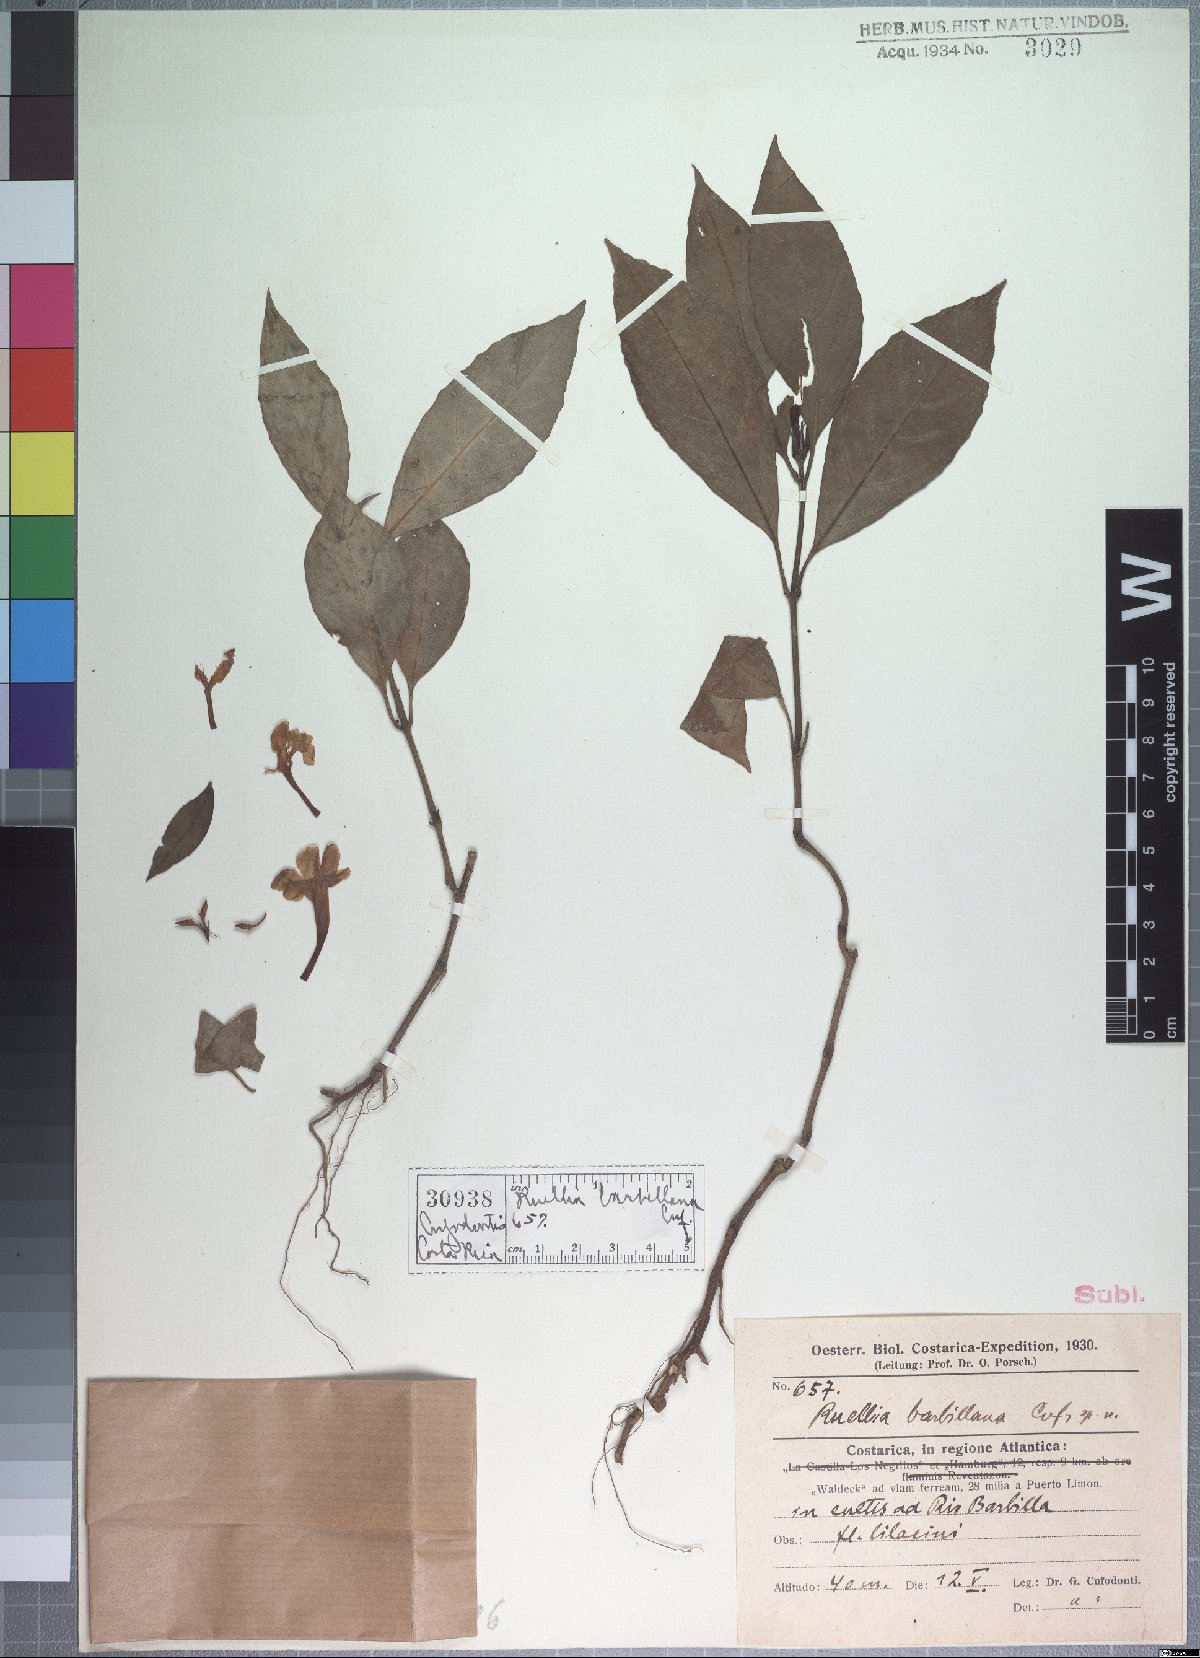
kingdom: Plantae
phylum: Tracheophyta
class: Magnoliopsida
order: Lamiales
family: Acanthaceae
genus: Ruellia
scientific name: Ruellia barbillana
